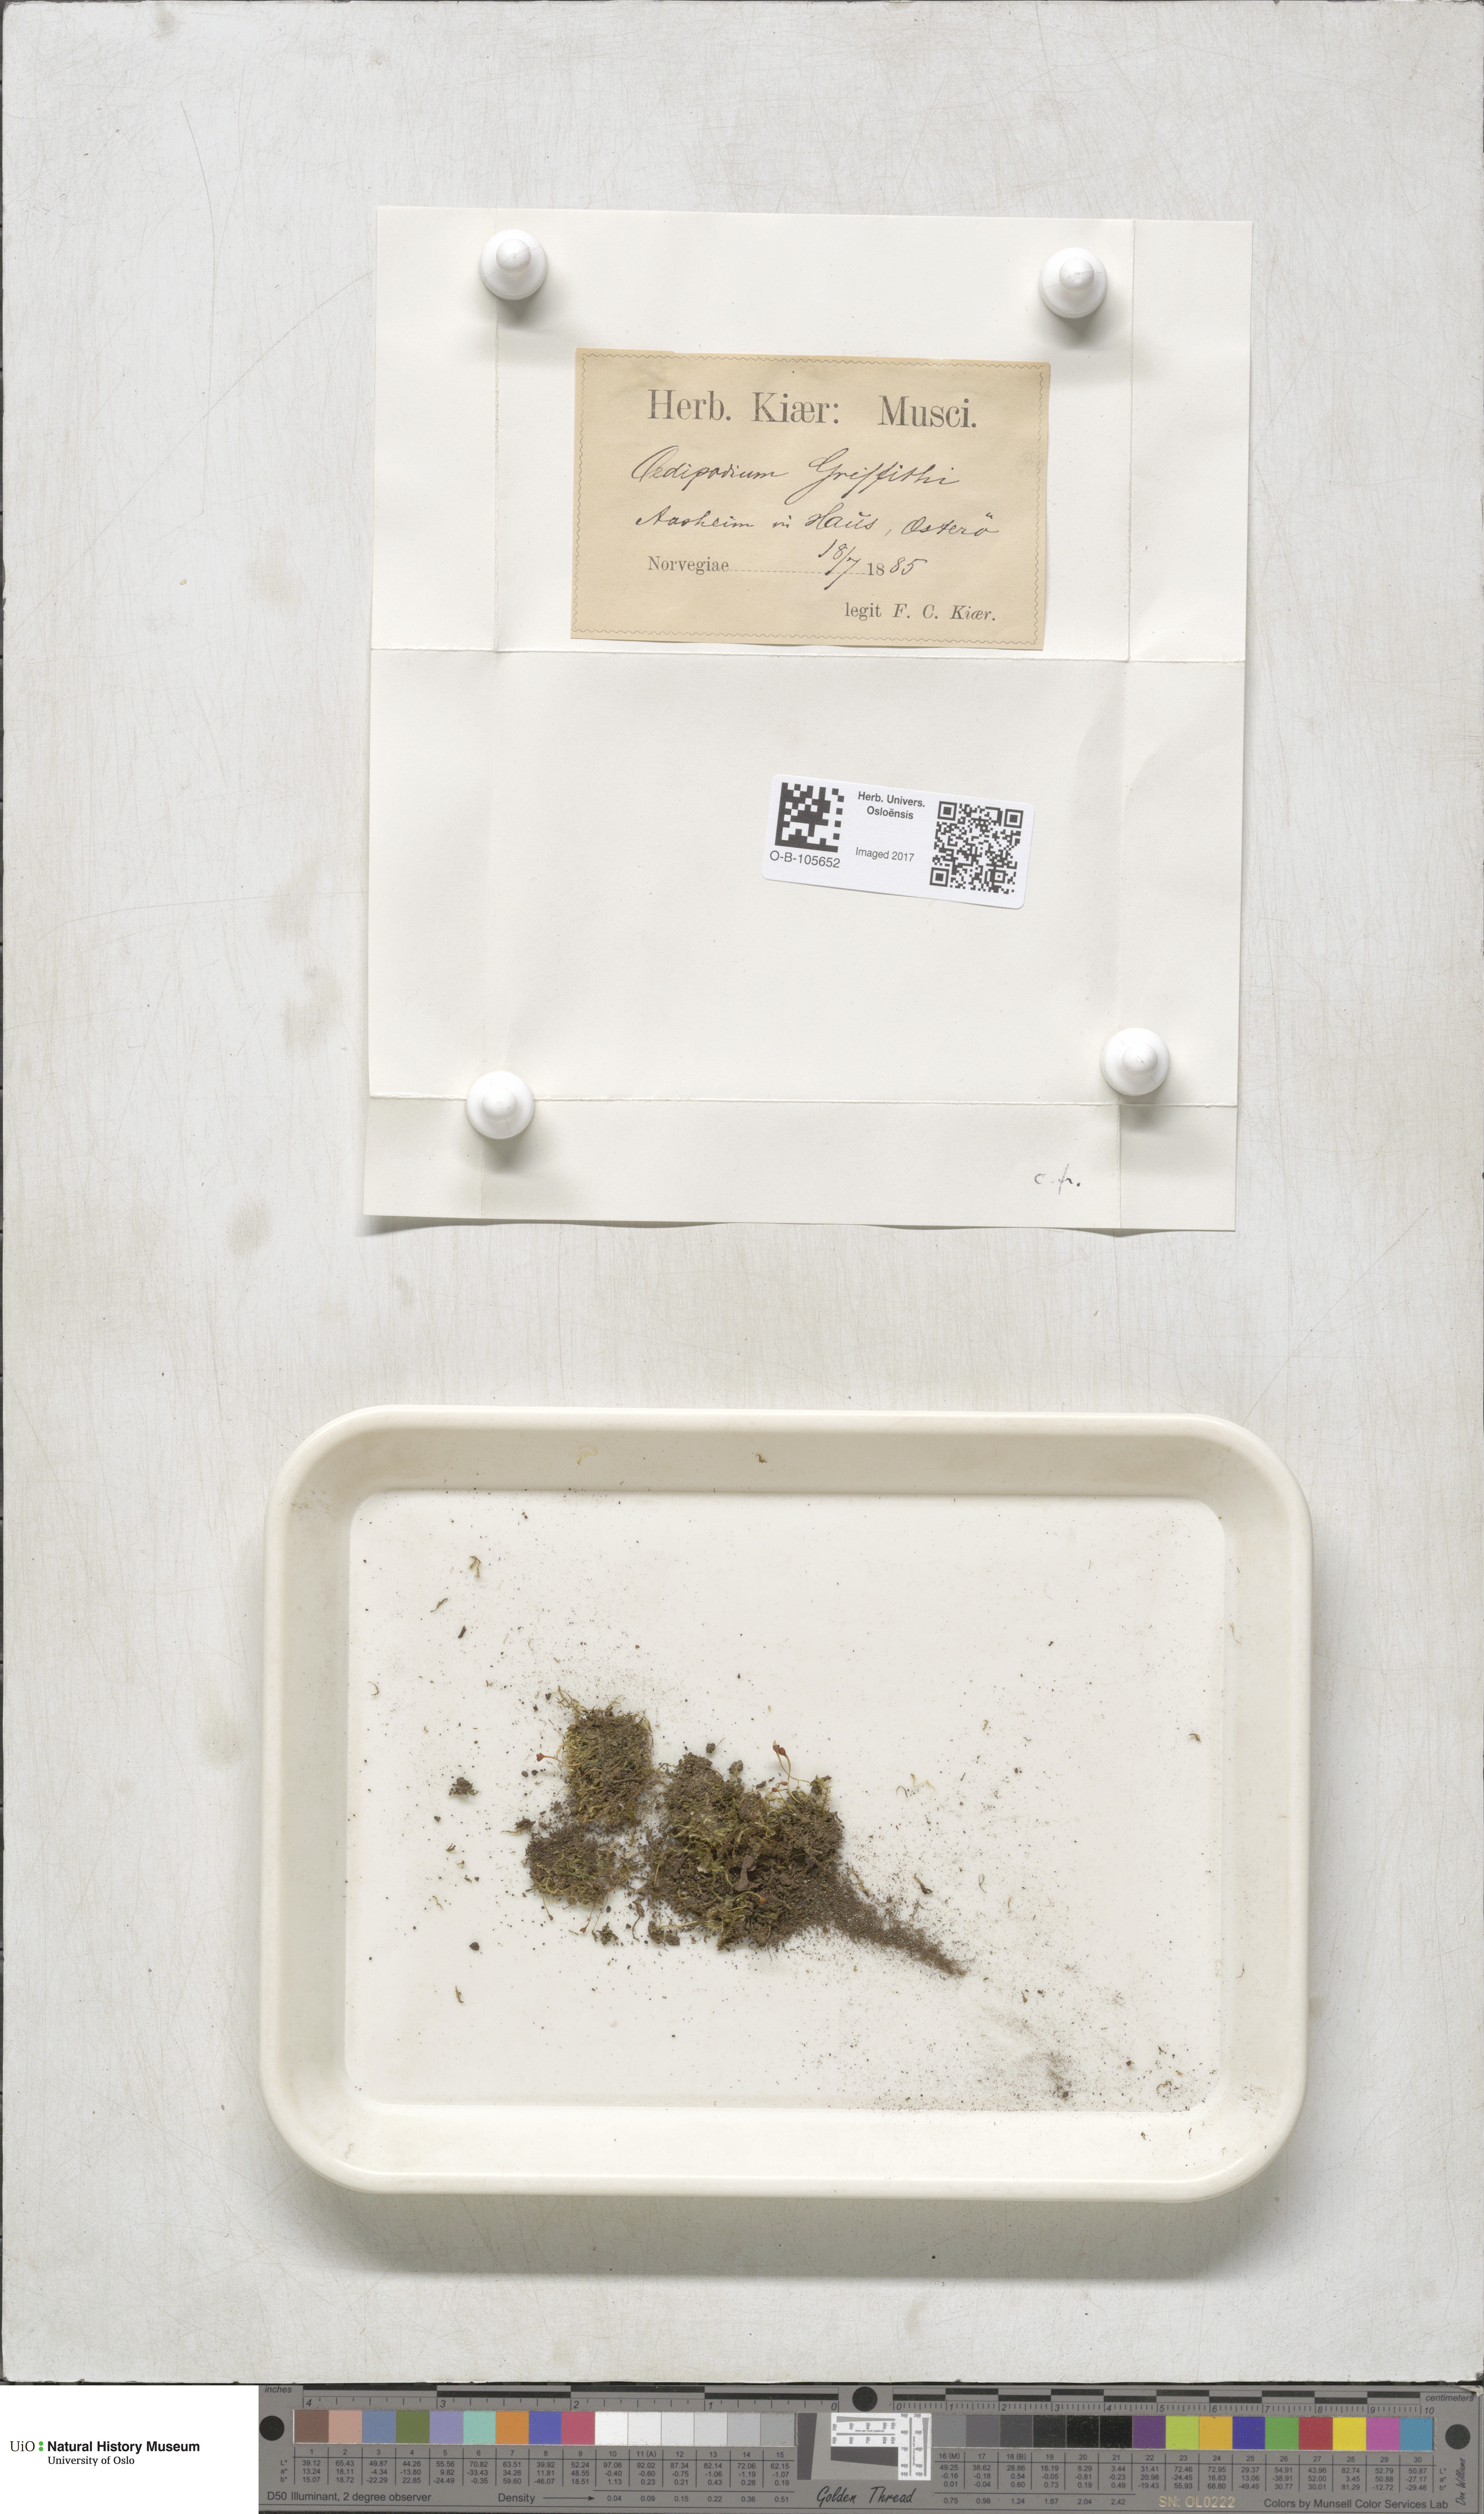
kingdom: Plantae
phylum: Bryophyta
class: Polytrichopsida
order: Oedipodiales
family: Oedipodiaceae
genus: Oedipodium
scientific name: Oedipodium griffithianum
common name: Gouty-moss
